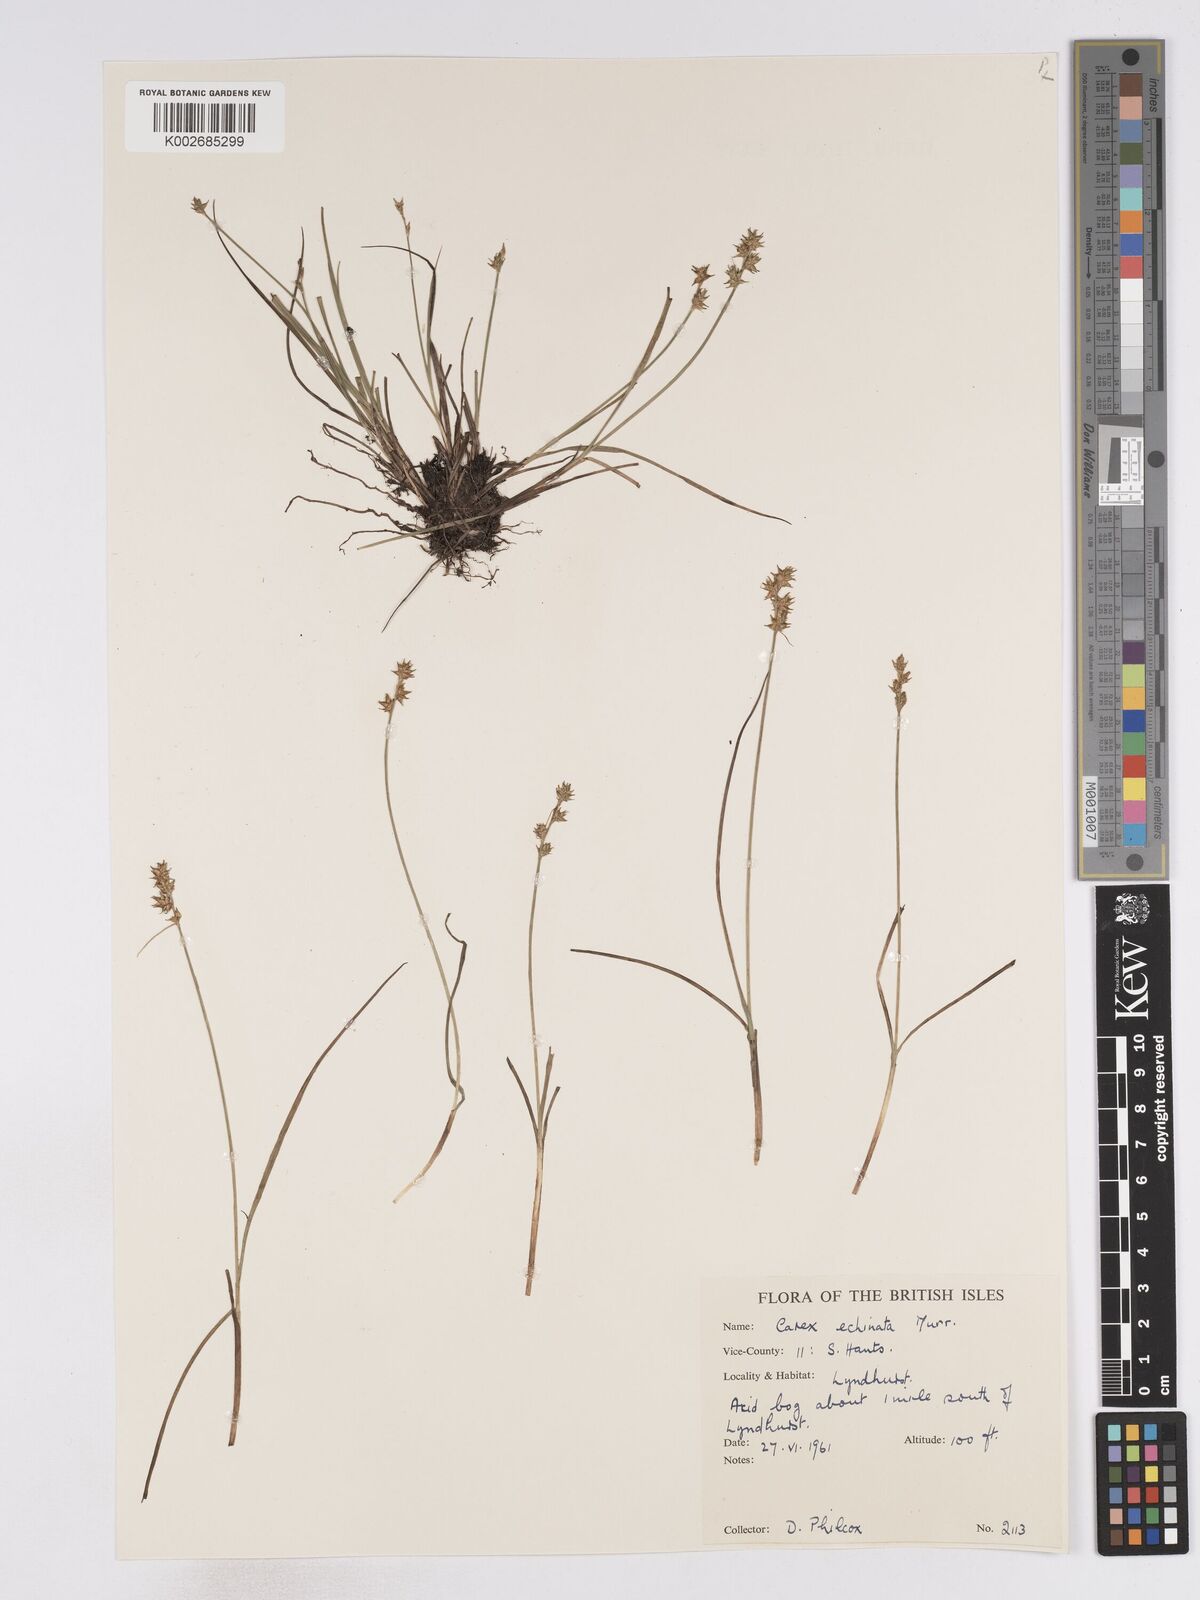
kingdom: Plantae
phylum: Tracheophyta
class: Liliopsida
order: Poales
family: Cyperaceae
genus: Carex
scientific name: Carex echinata
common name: Star sedge
